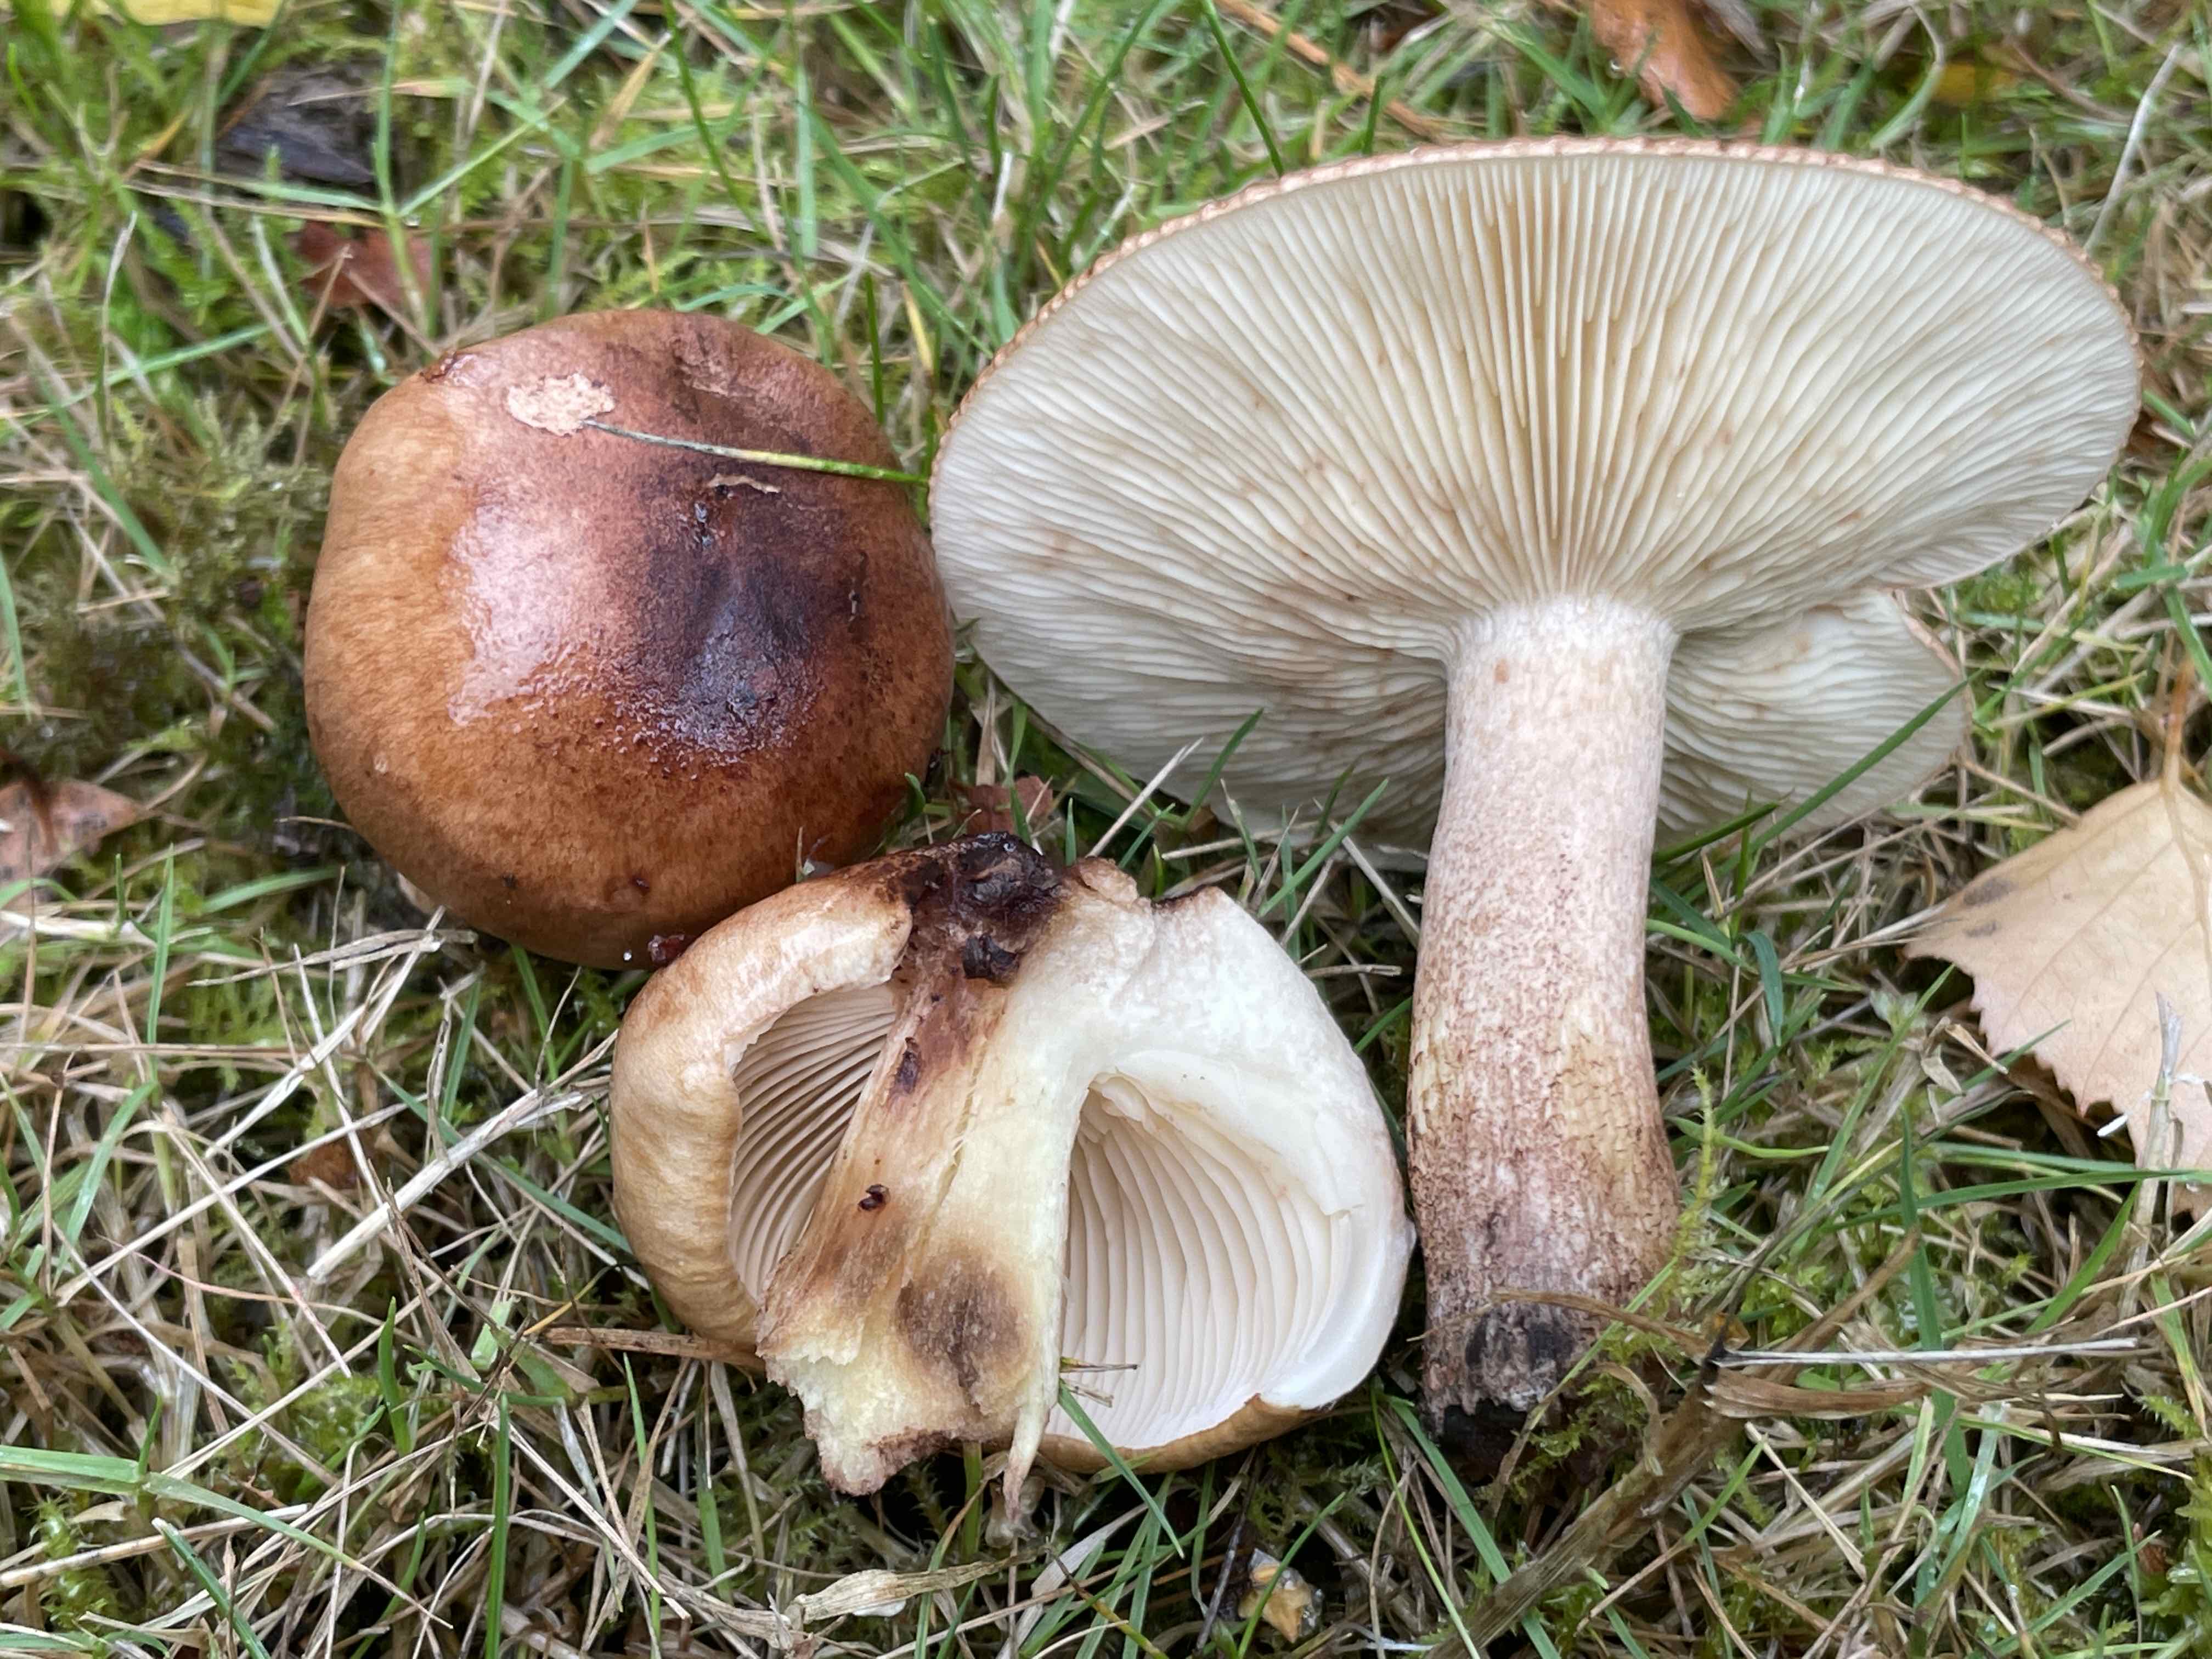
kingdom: Fungi
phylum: Basidiomycota
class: Agaricomycetes
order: Agaricales
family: Tricholomataceae
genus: Tricholoma
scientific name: Tricholoma fulvum
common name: birke-ridderhat
